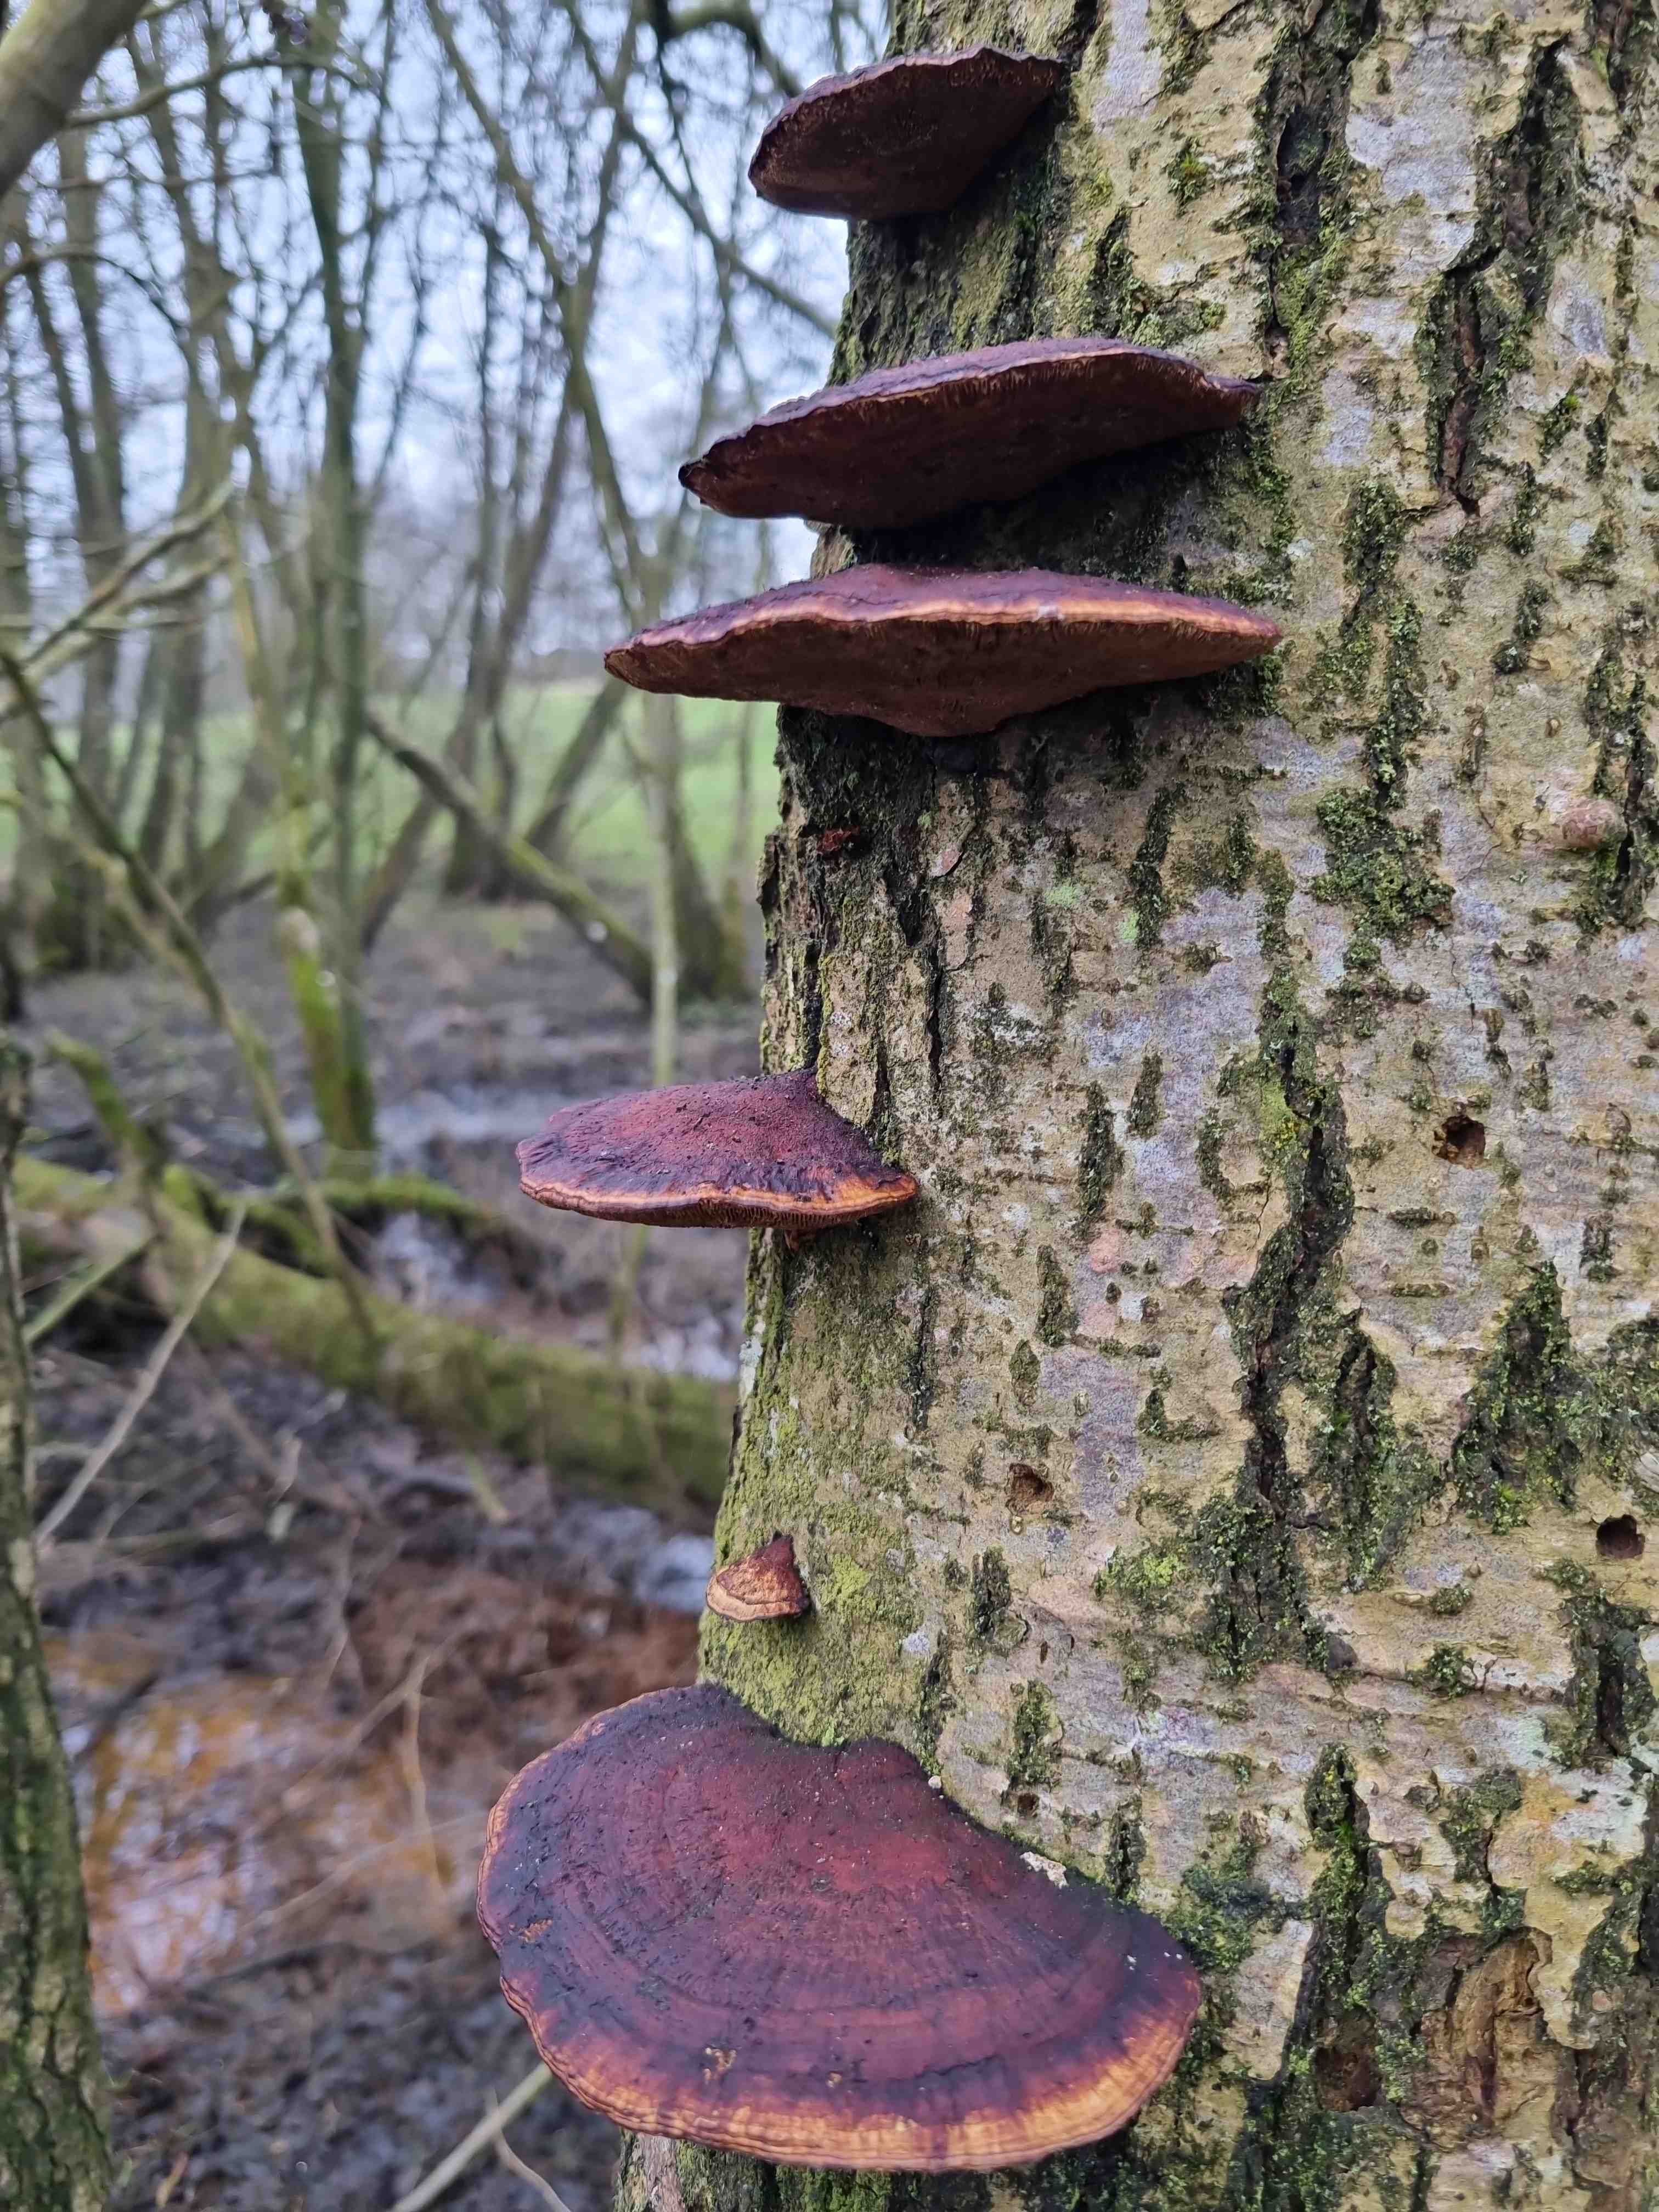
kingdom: Fungi
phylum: Basidiomycota
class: Agaricomycetes
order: Polyporales
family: Polyporaceae
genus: Daedaleopsis
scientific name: Daedaleopsis confragosa
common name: rødmende læderporesvamp
